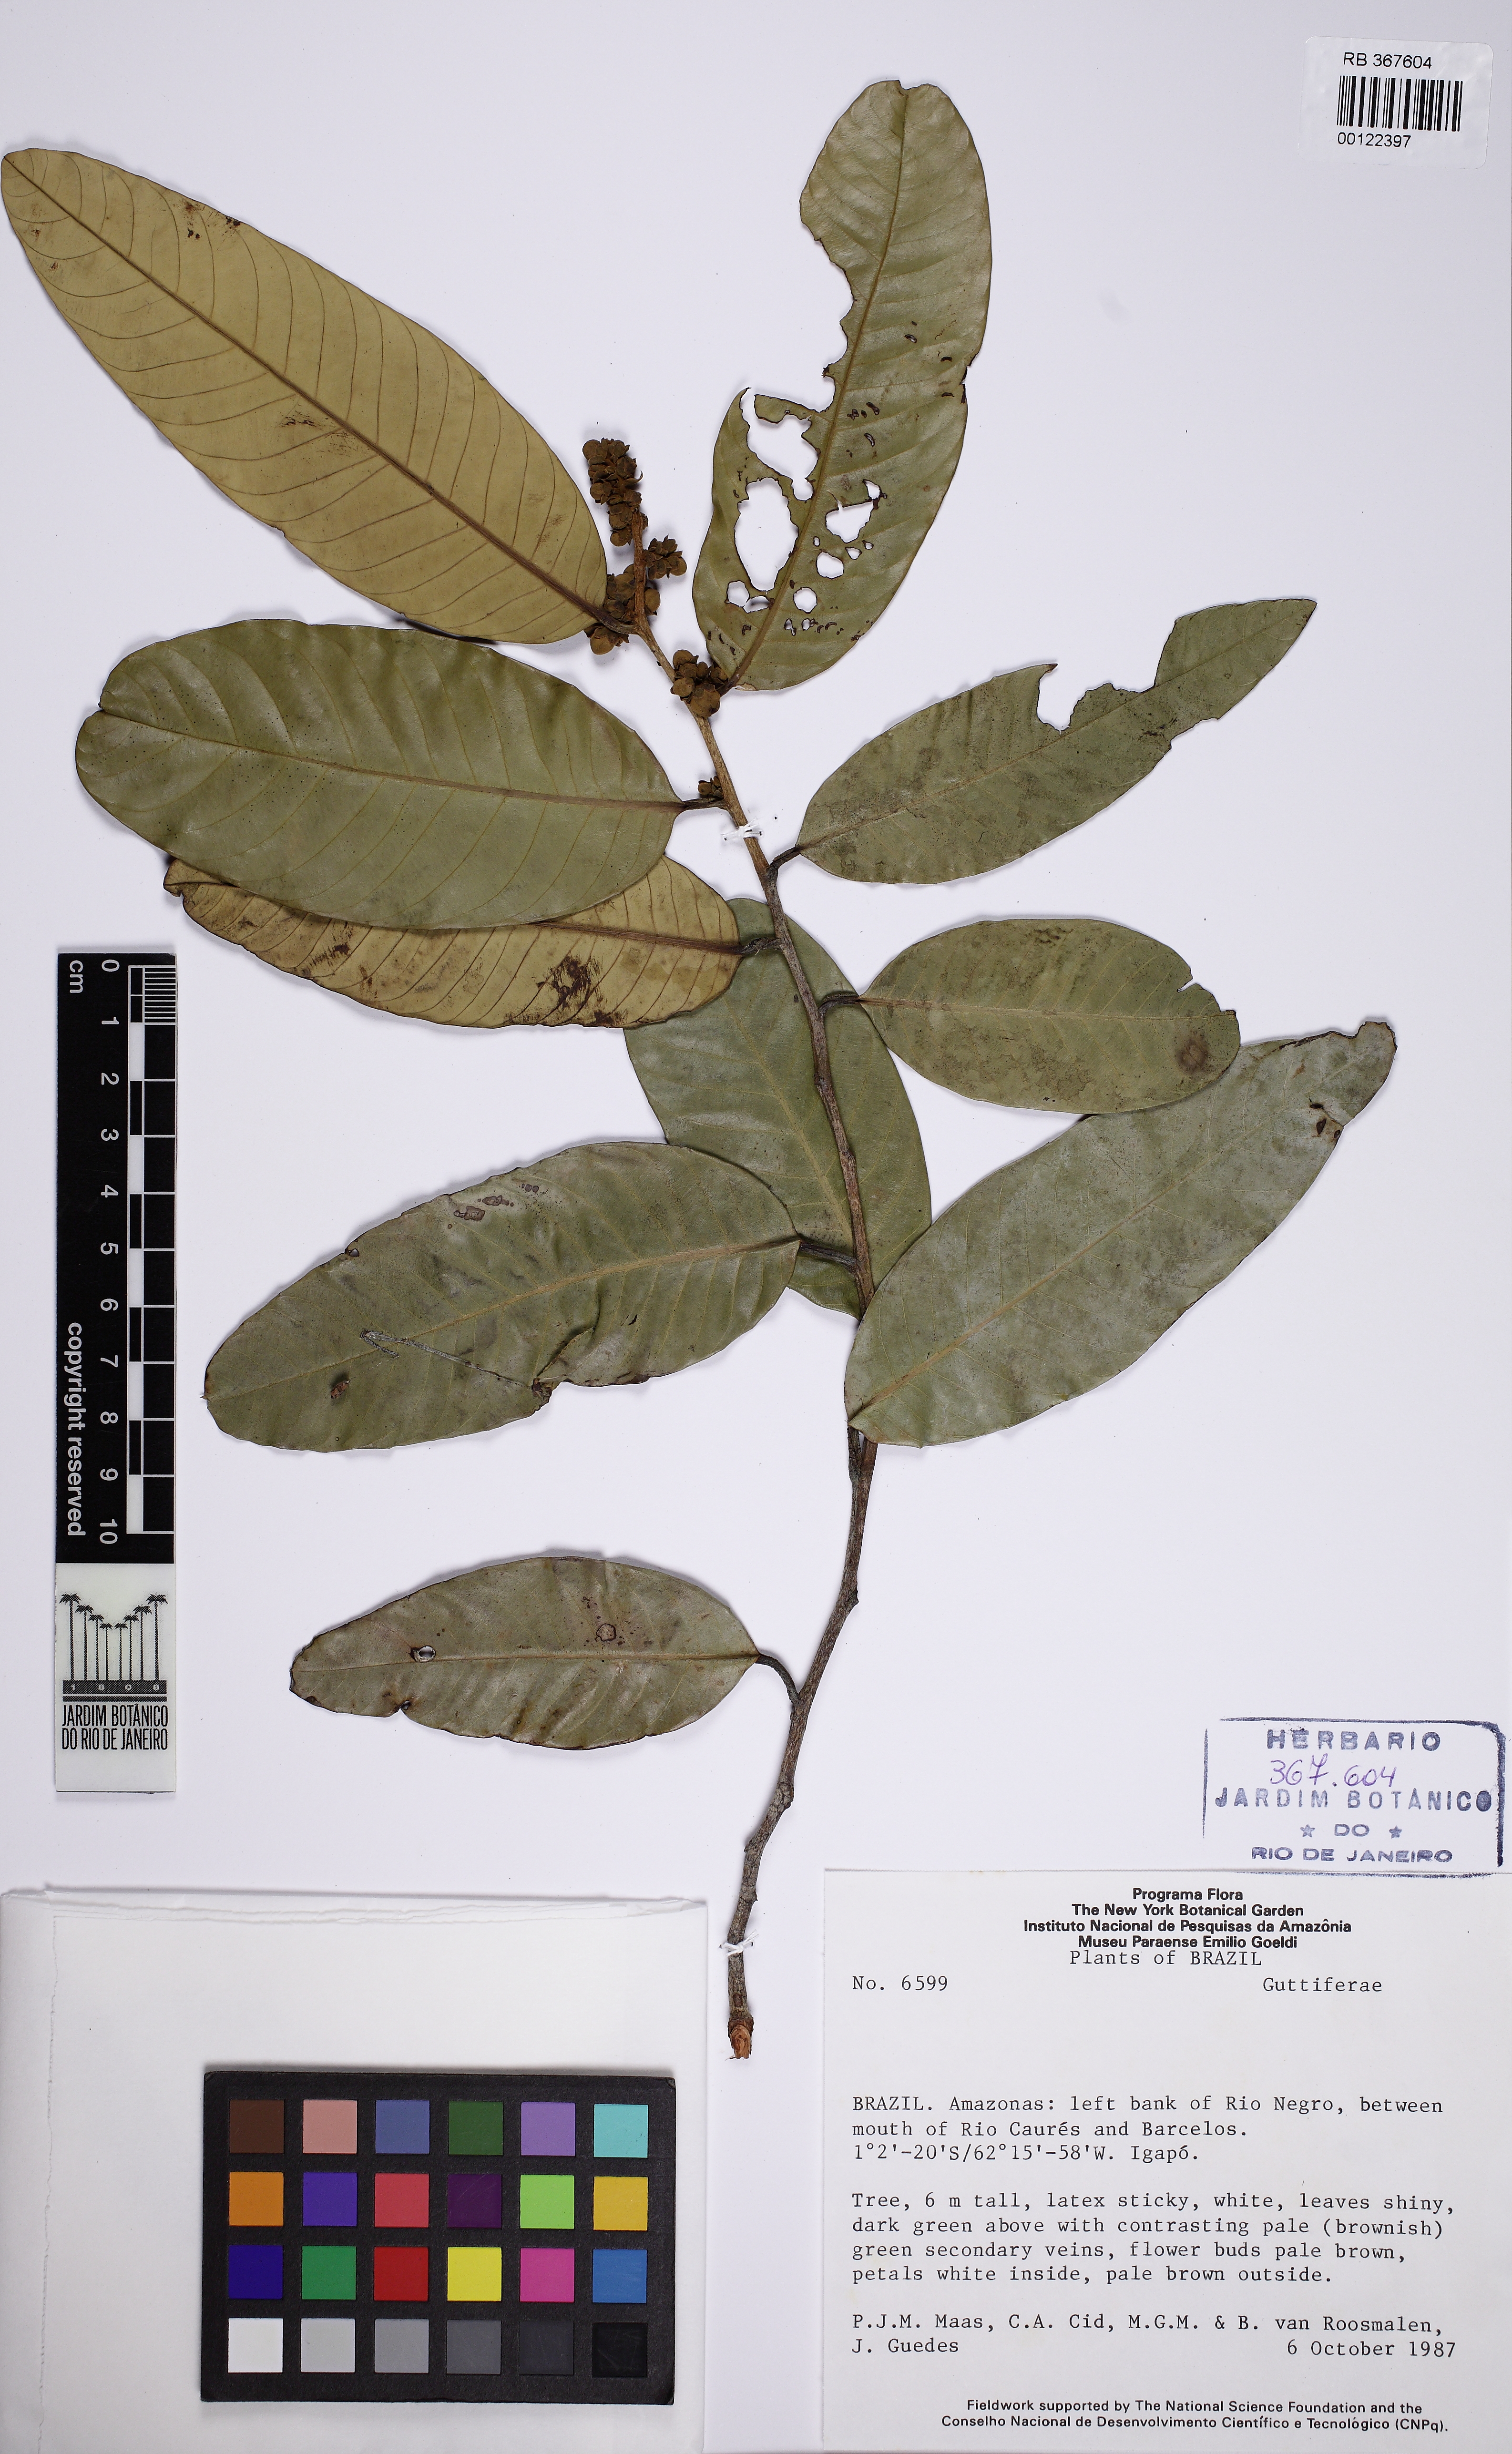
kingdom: Plantae
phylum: Tracheophyta
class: Magnoliopsida
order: Malpighiales
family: Calophyllaceae
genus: Caraipa
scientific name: Caraipa grandifolia
